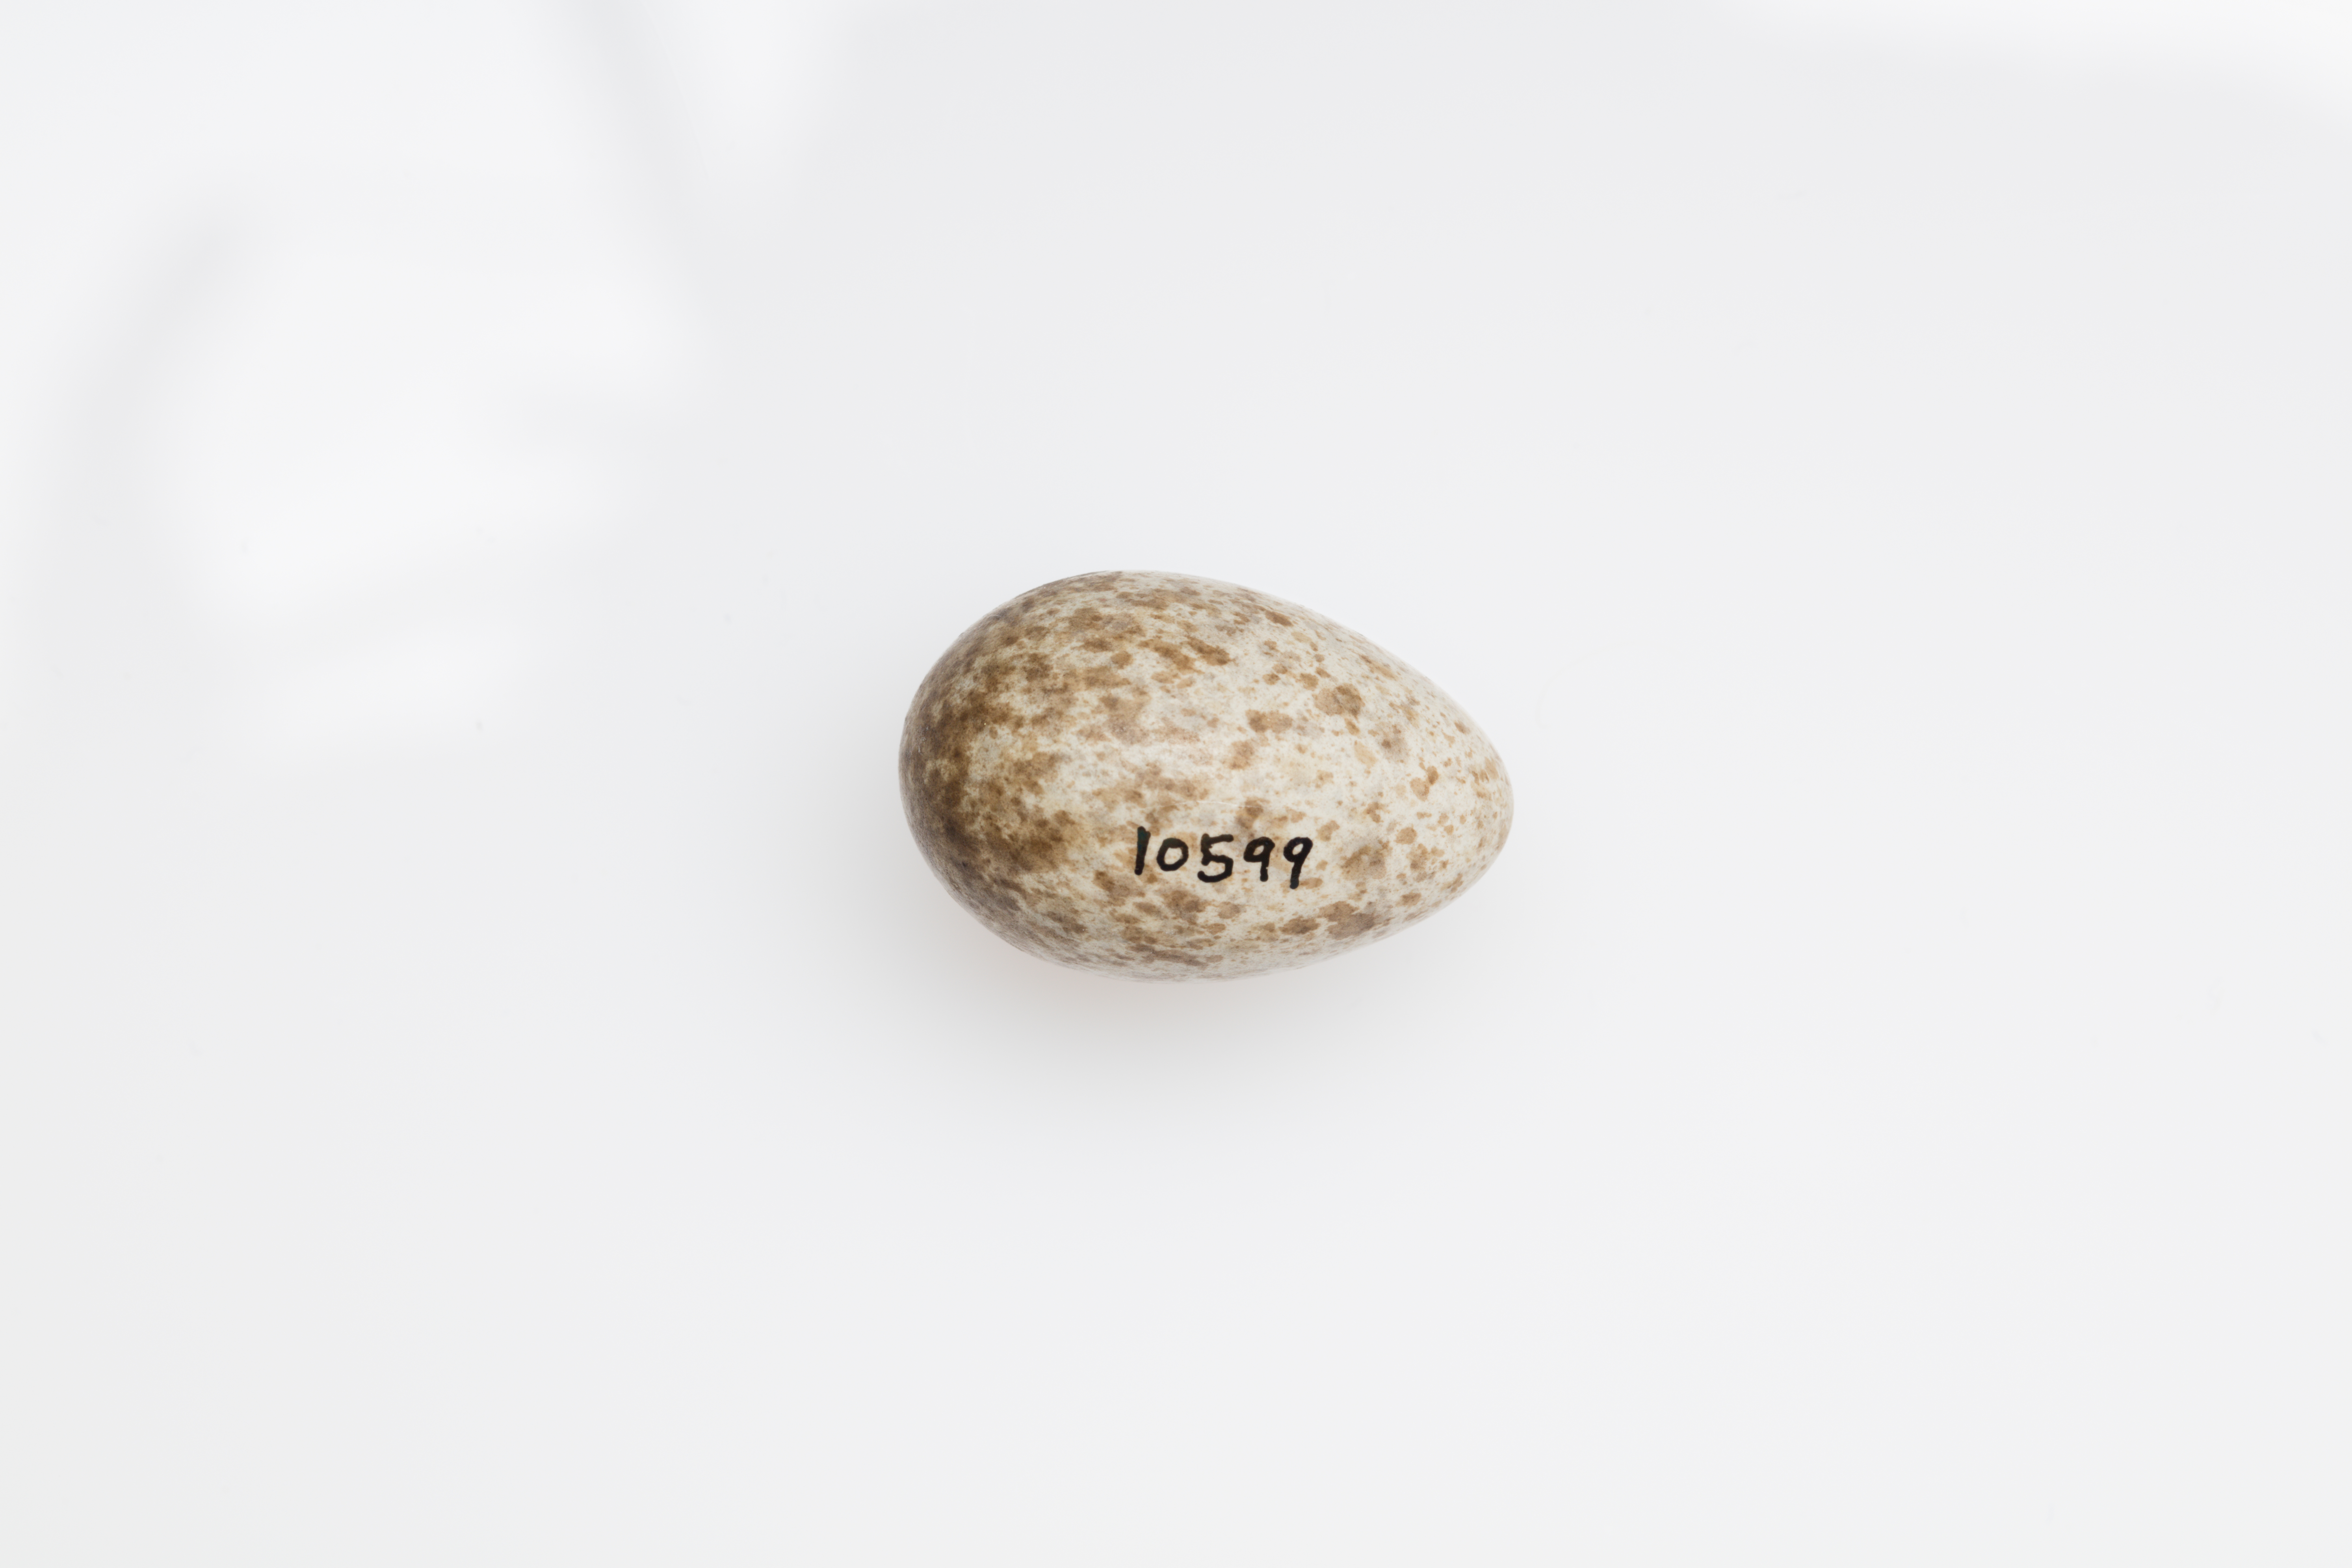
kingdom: Animalia
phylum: Chordata
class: Aves
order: Passeriformes
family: Alaudidae
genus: Alauda
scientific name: Alauda arvensis
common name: Eurasian skylark
